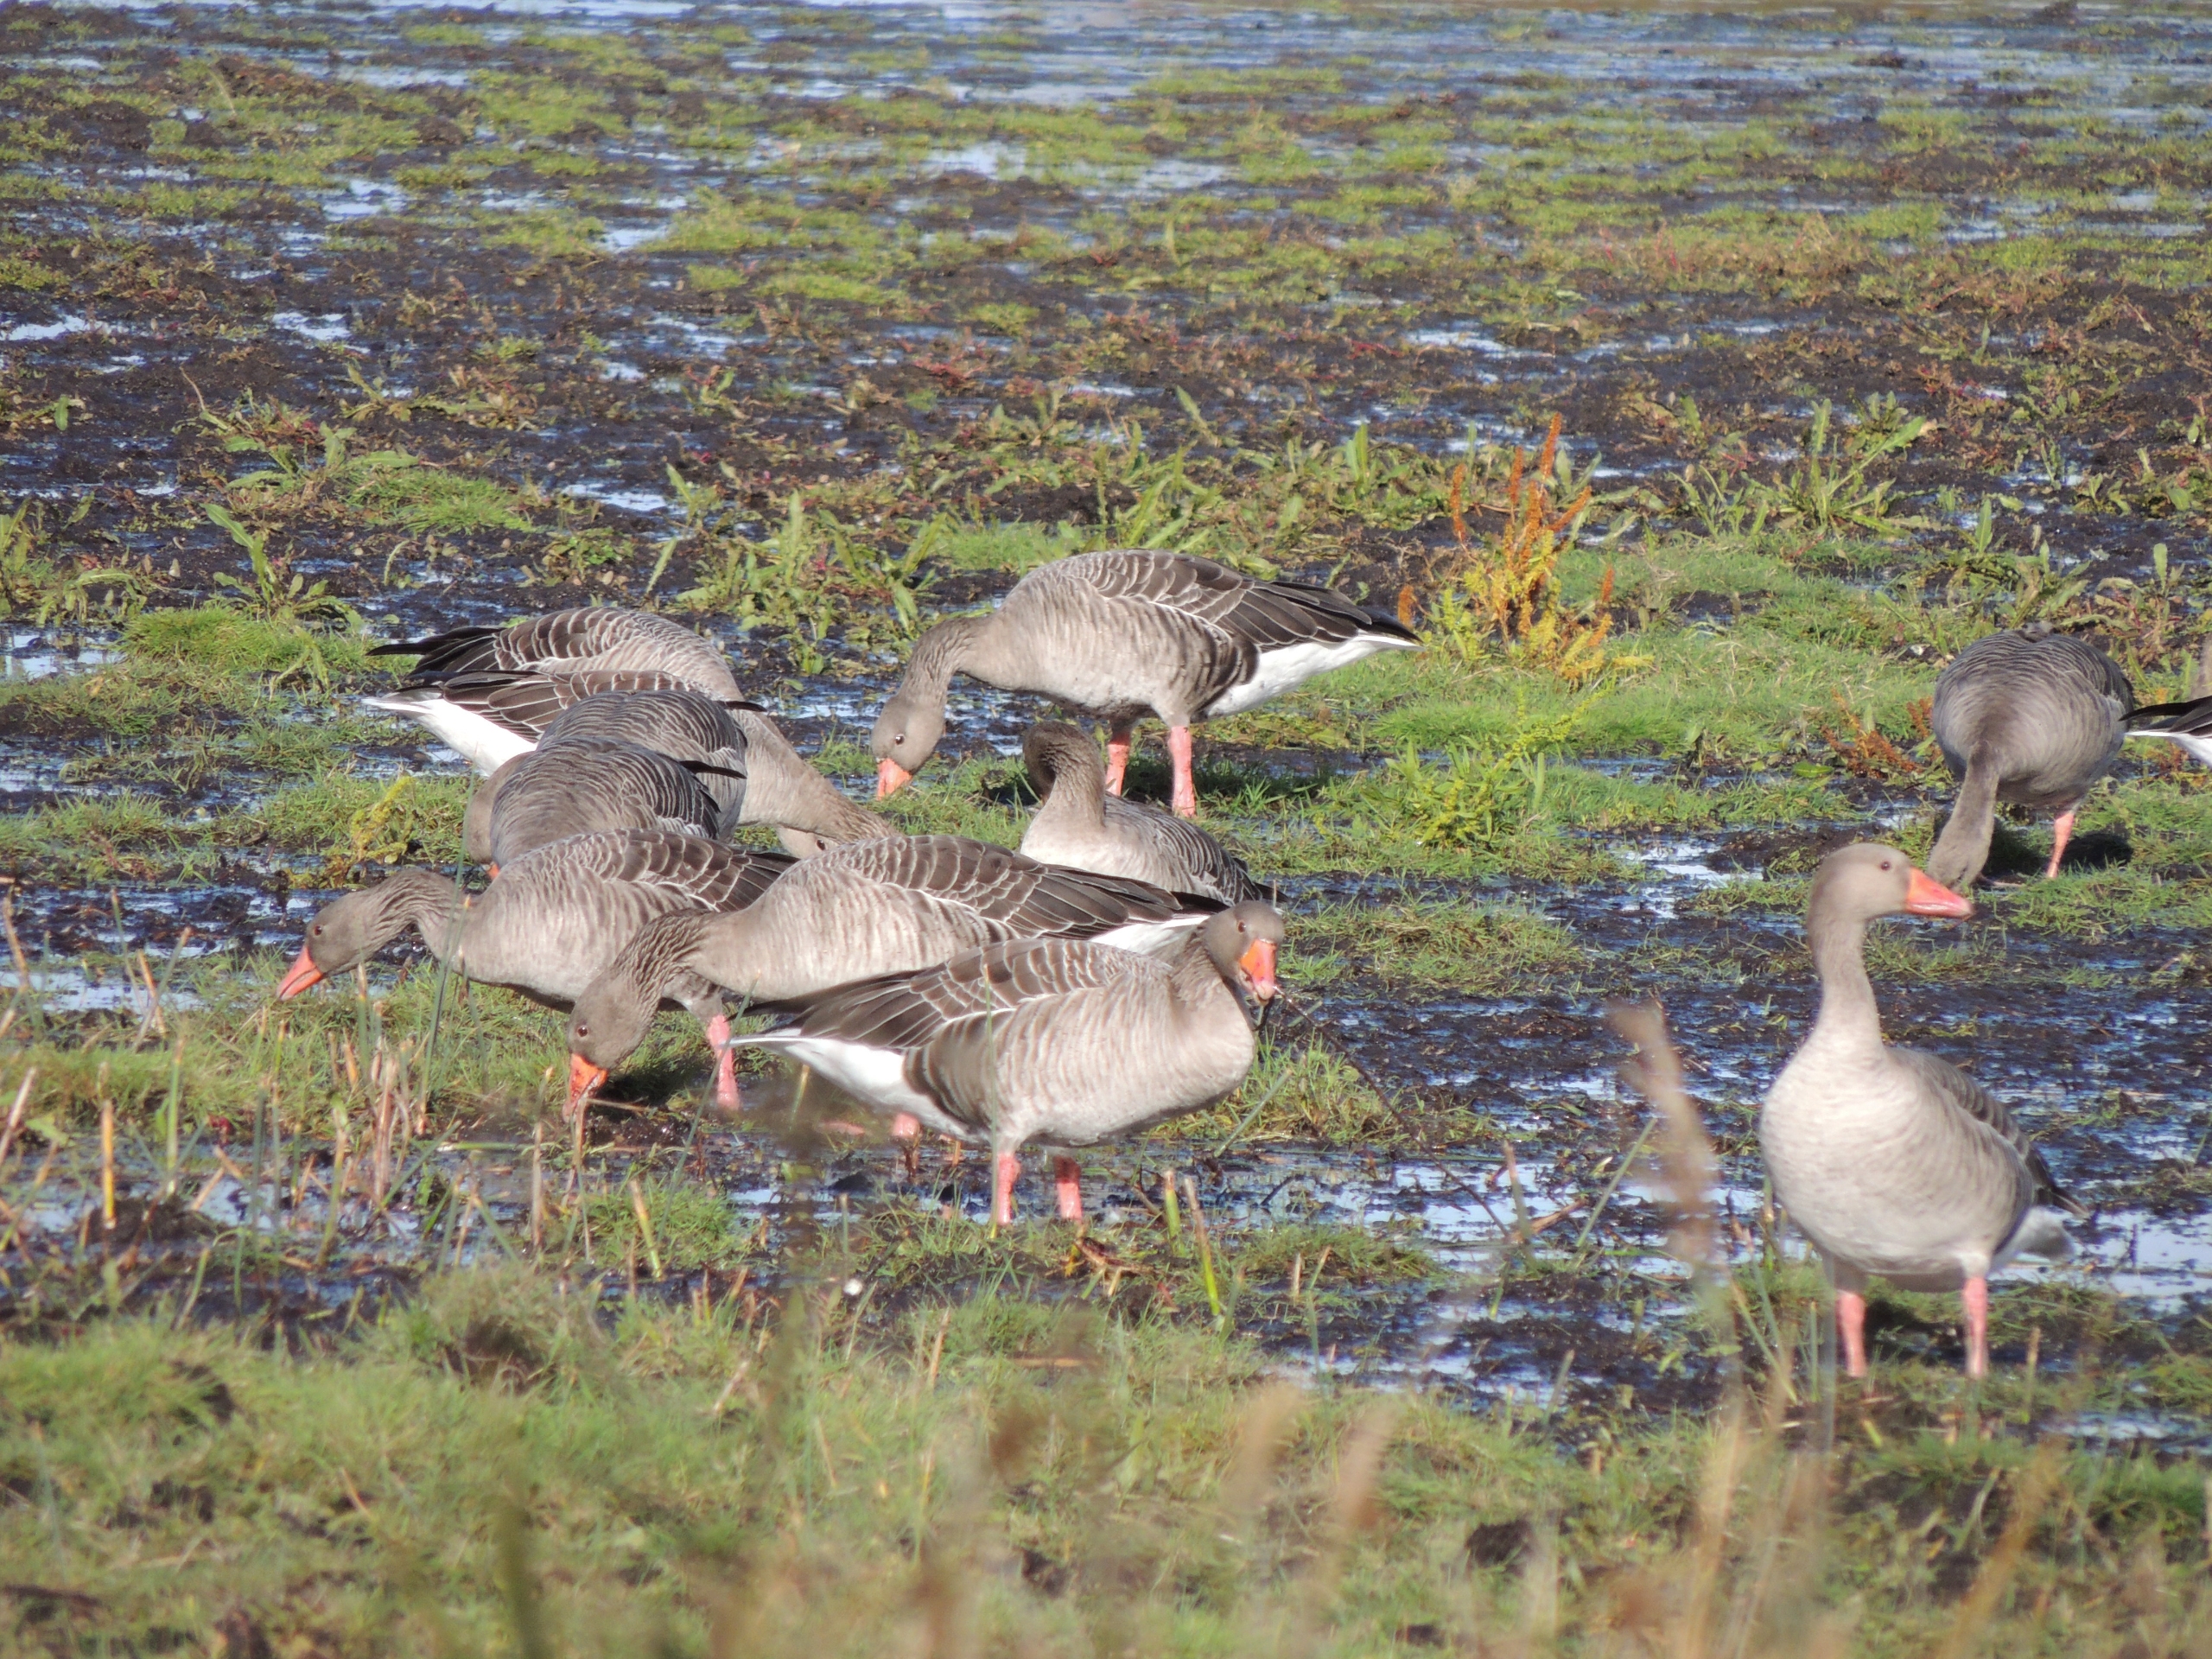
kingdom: Animalia
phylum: Chordata
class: Aves
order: Anseriformes
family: Anatidae
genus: Anser
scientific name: Anser anser
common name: Grågås
